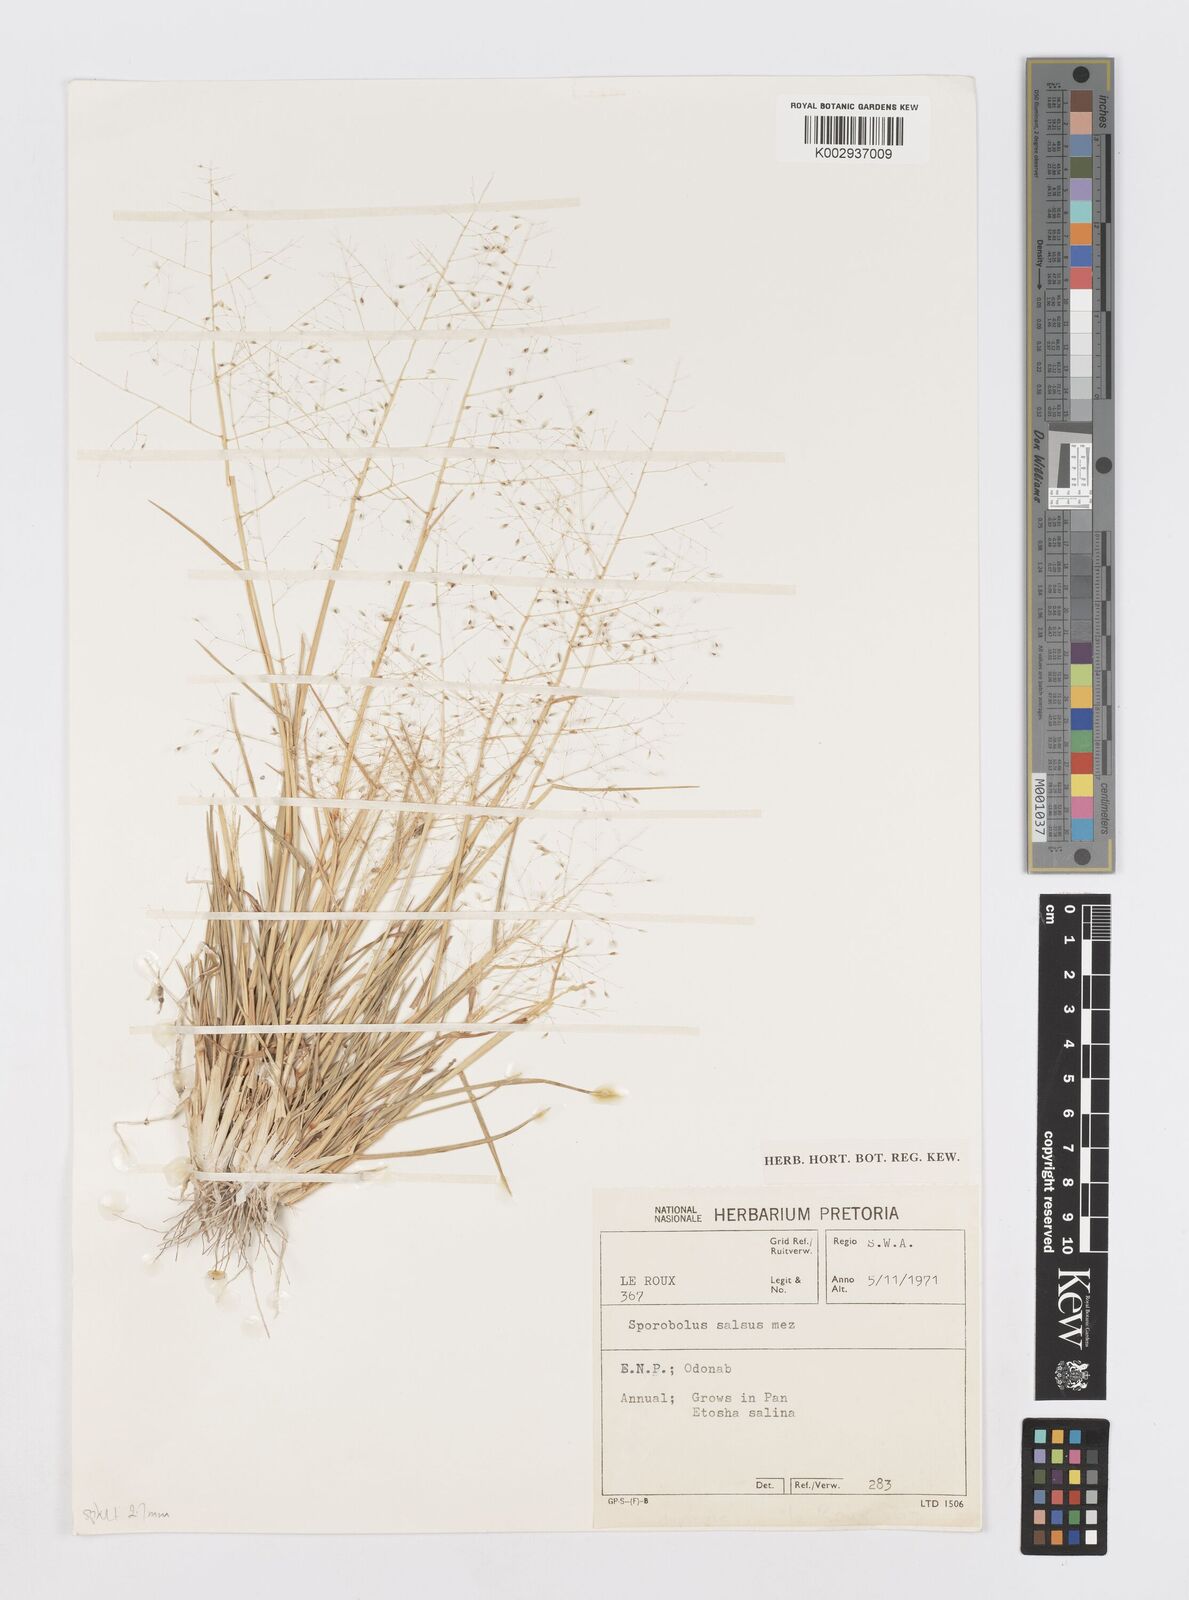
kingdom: Plantae
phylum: Tracheophyta
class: Liliopsida
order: Poales
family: Poaceae
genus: Sporobolus
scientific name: Sporobolus salsus
